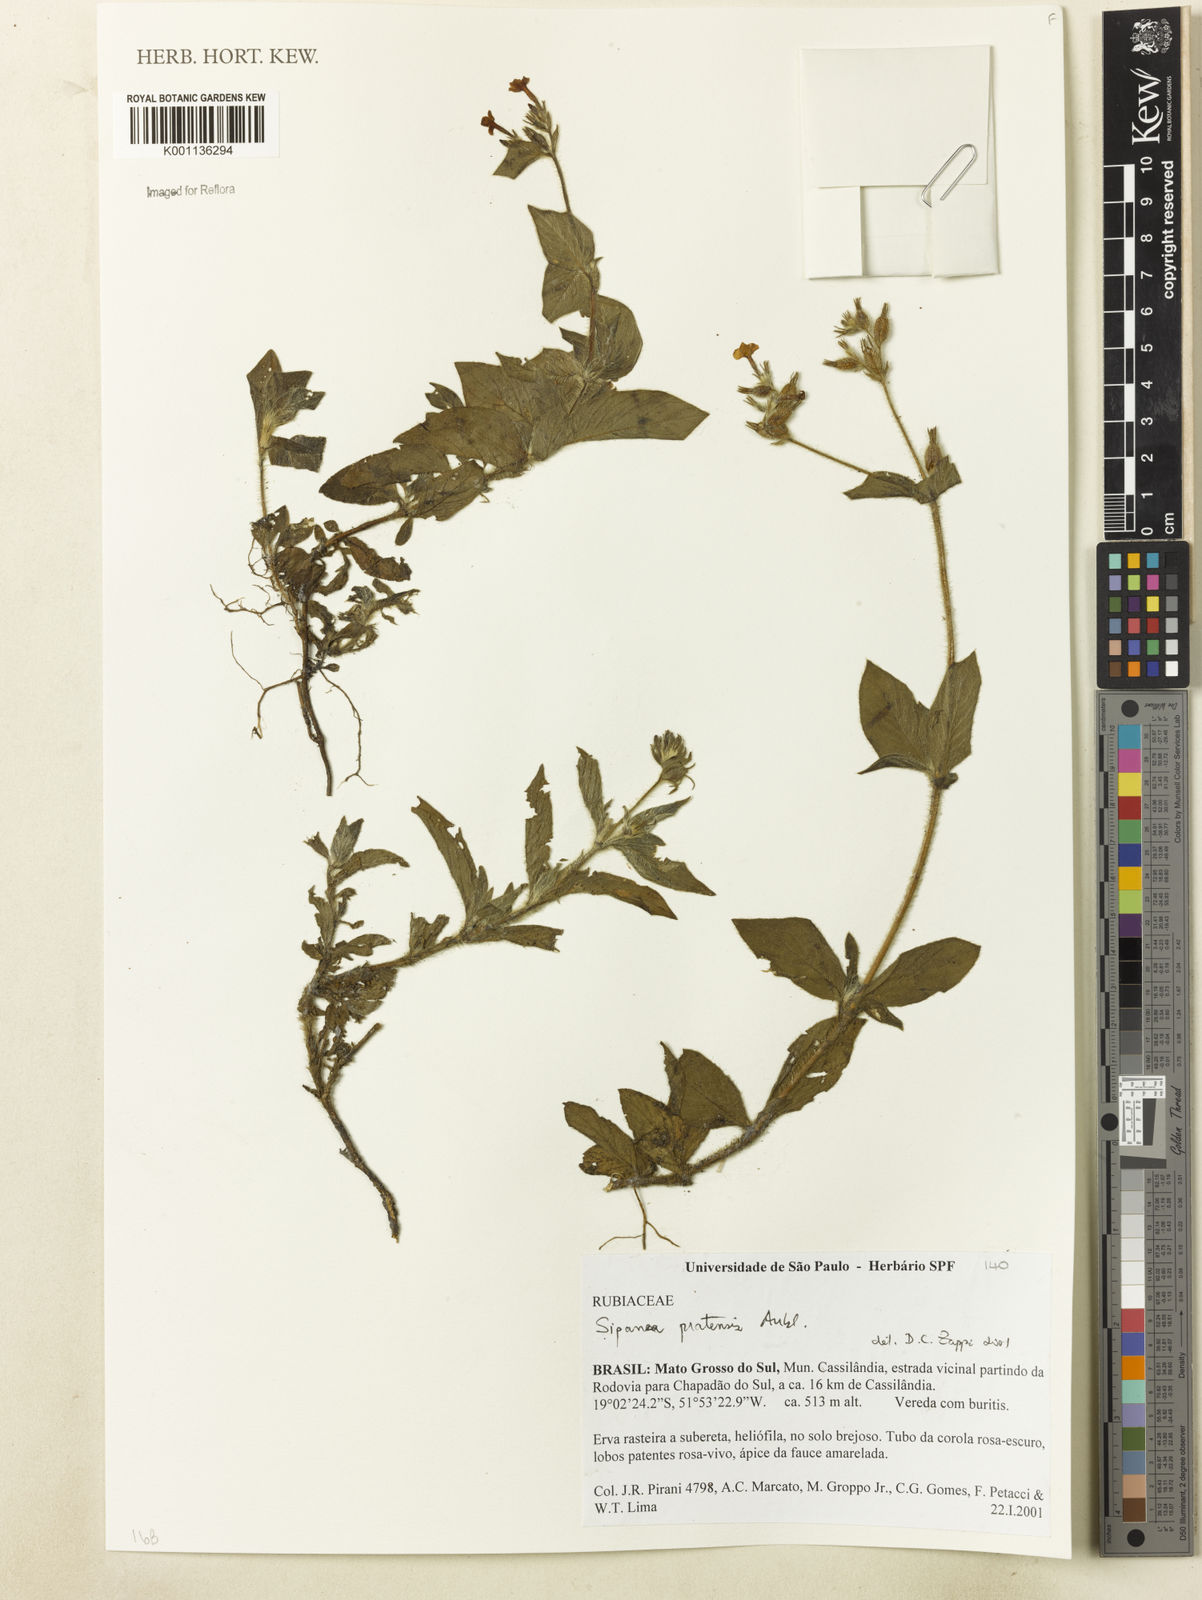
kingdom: Plantae
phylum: Tracheophyta
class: Magnoliopsida
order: Gentianales
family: Rubiaceae
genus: Sipanea
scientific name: Sipanea pratensis
